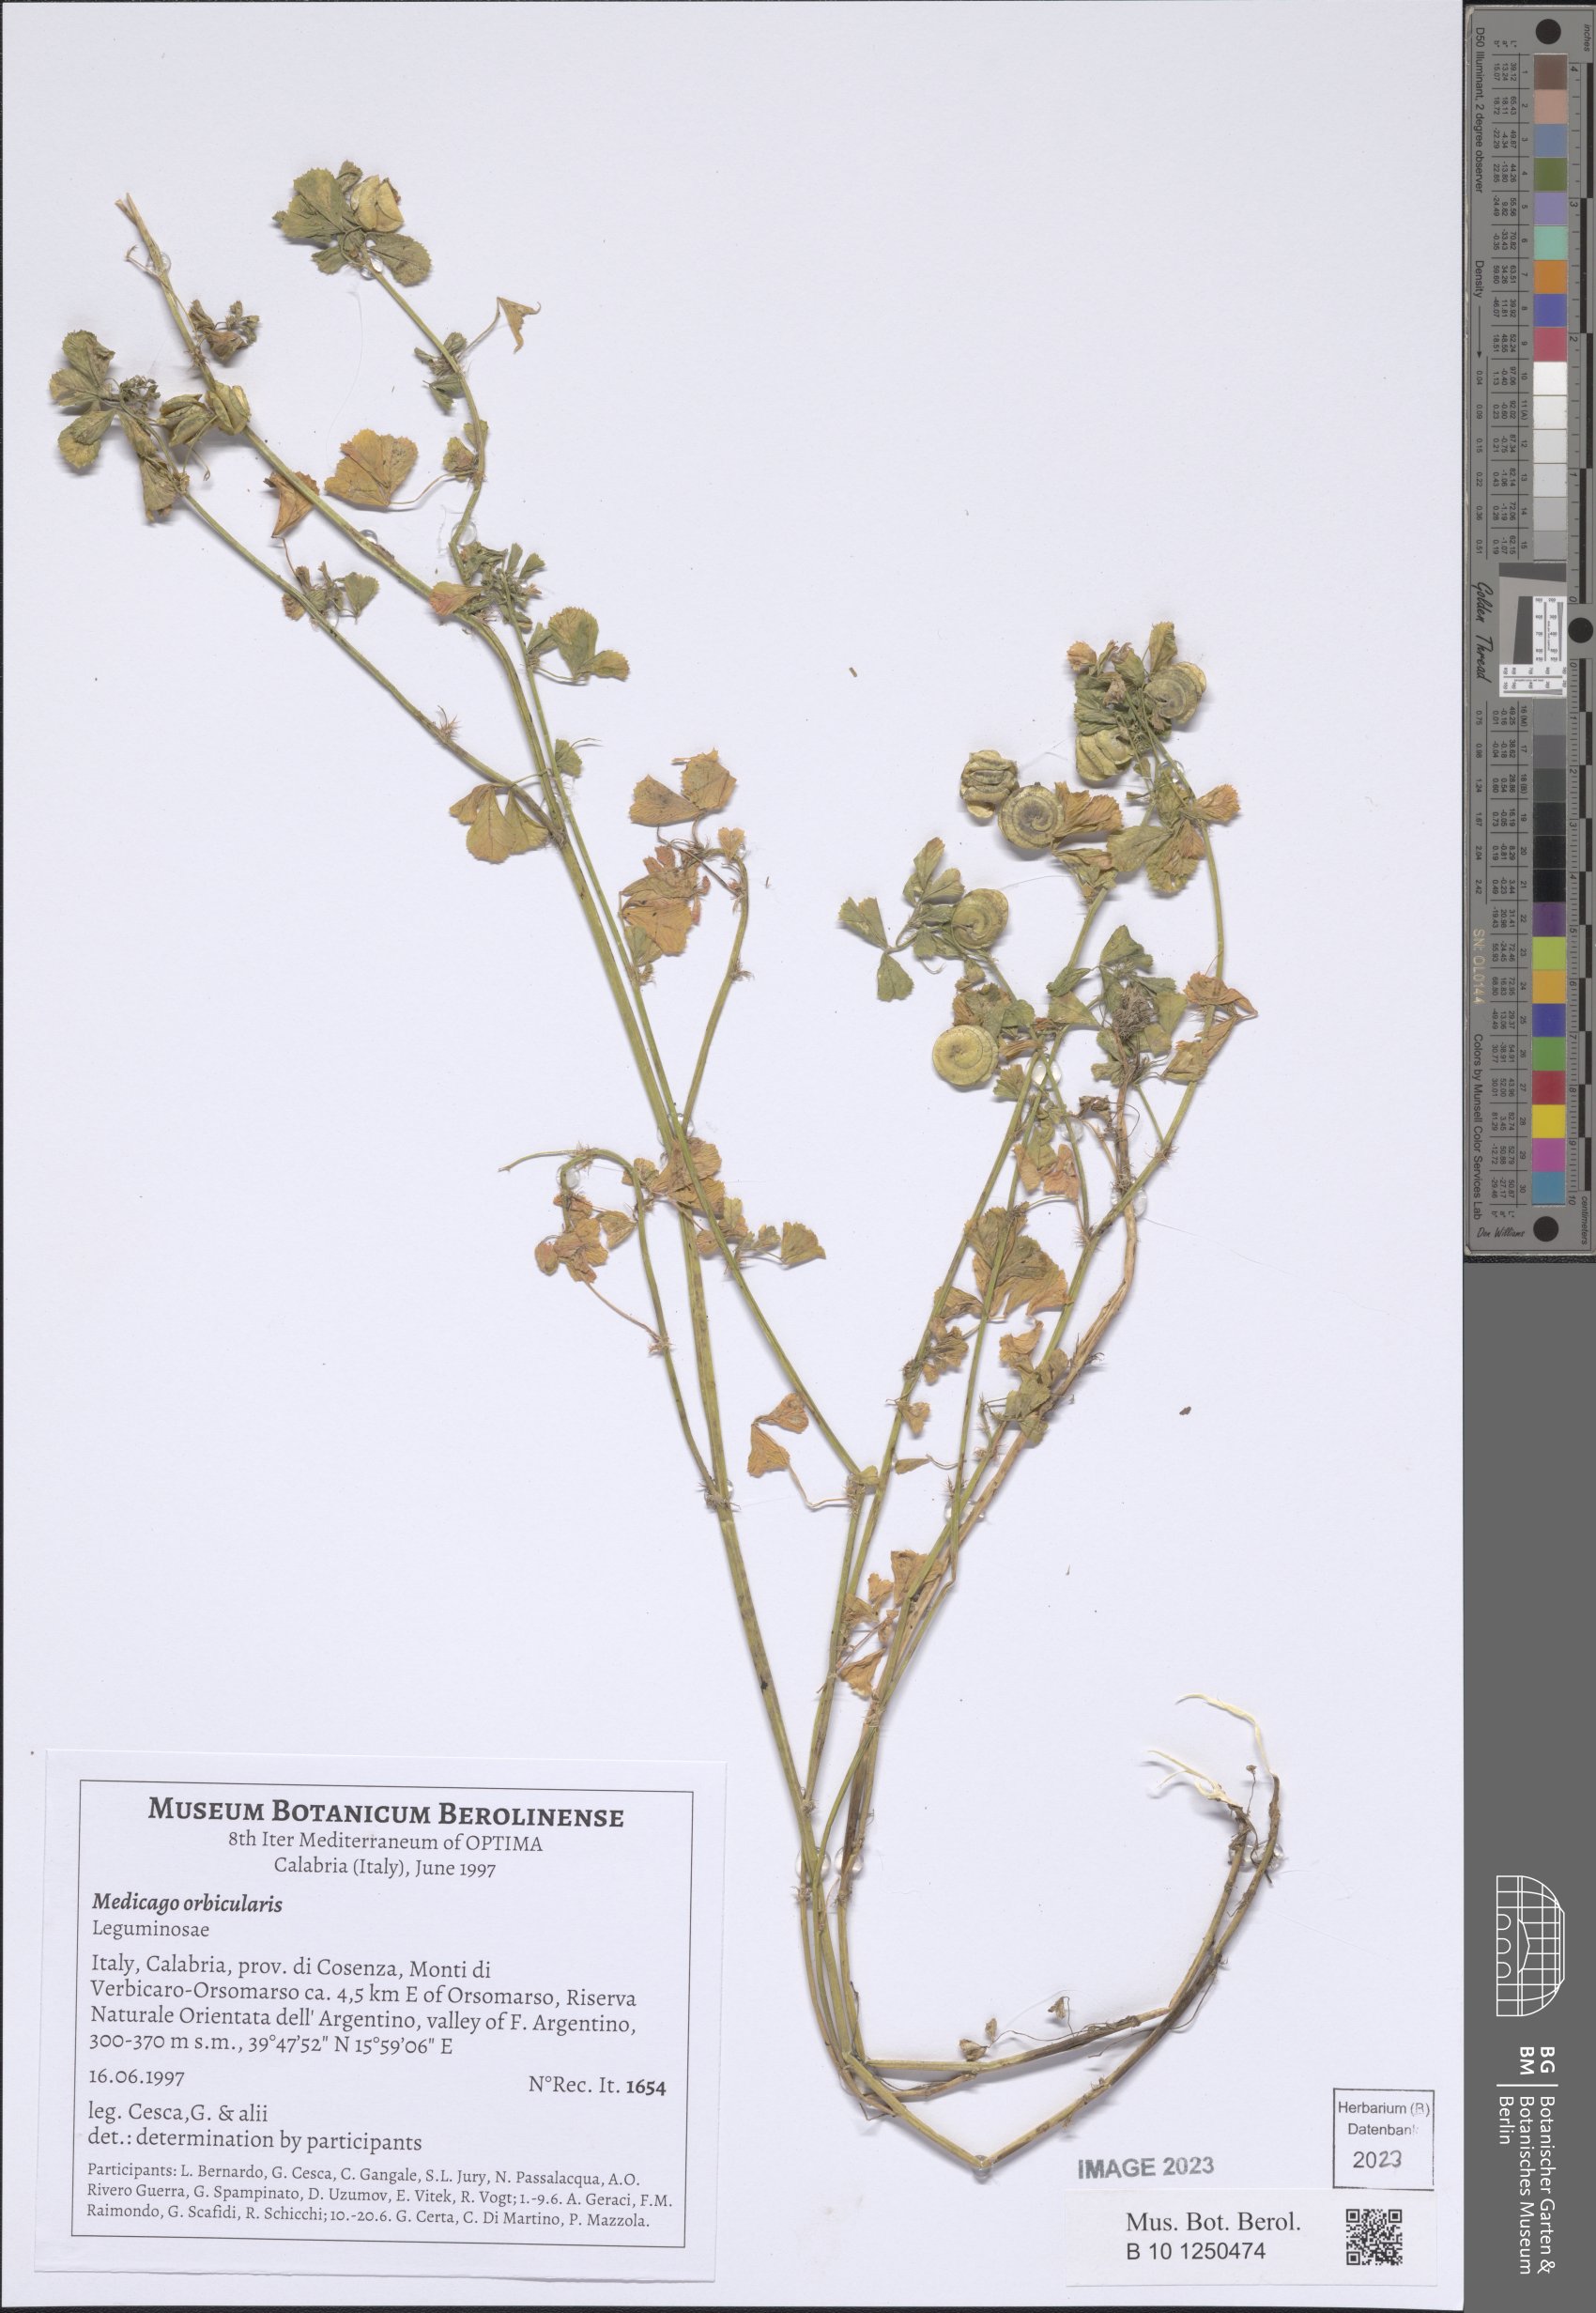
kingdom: Plantae
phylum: Tracheophyta
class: Magnoliopsida
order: Fabales
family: Fabaceae
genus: Medicago
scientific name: Medicago orbicularis
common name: Button medick
